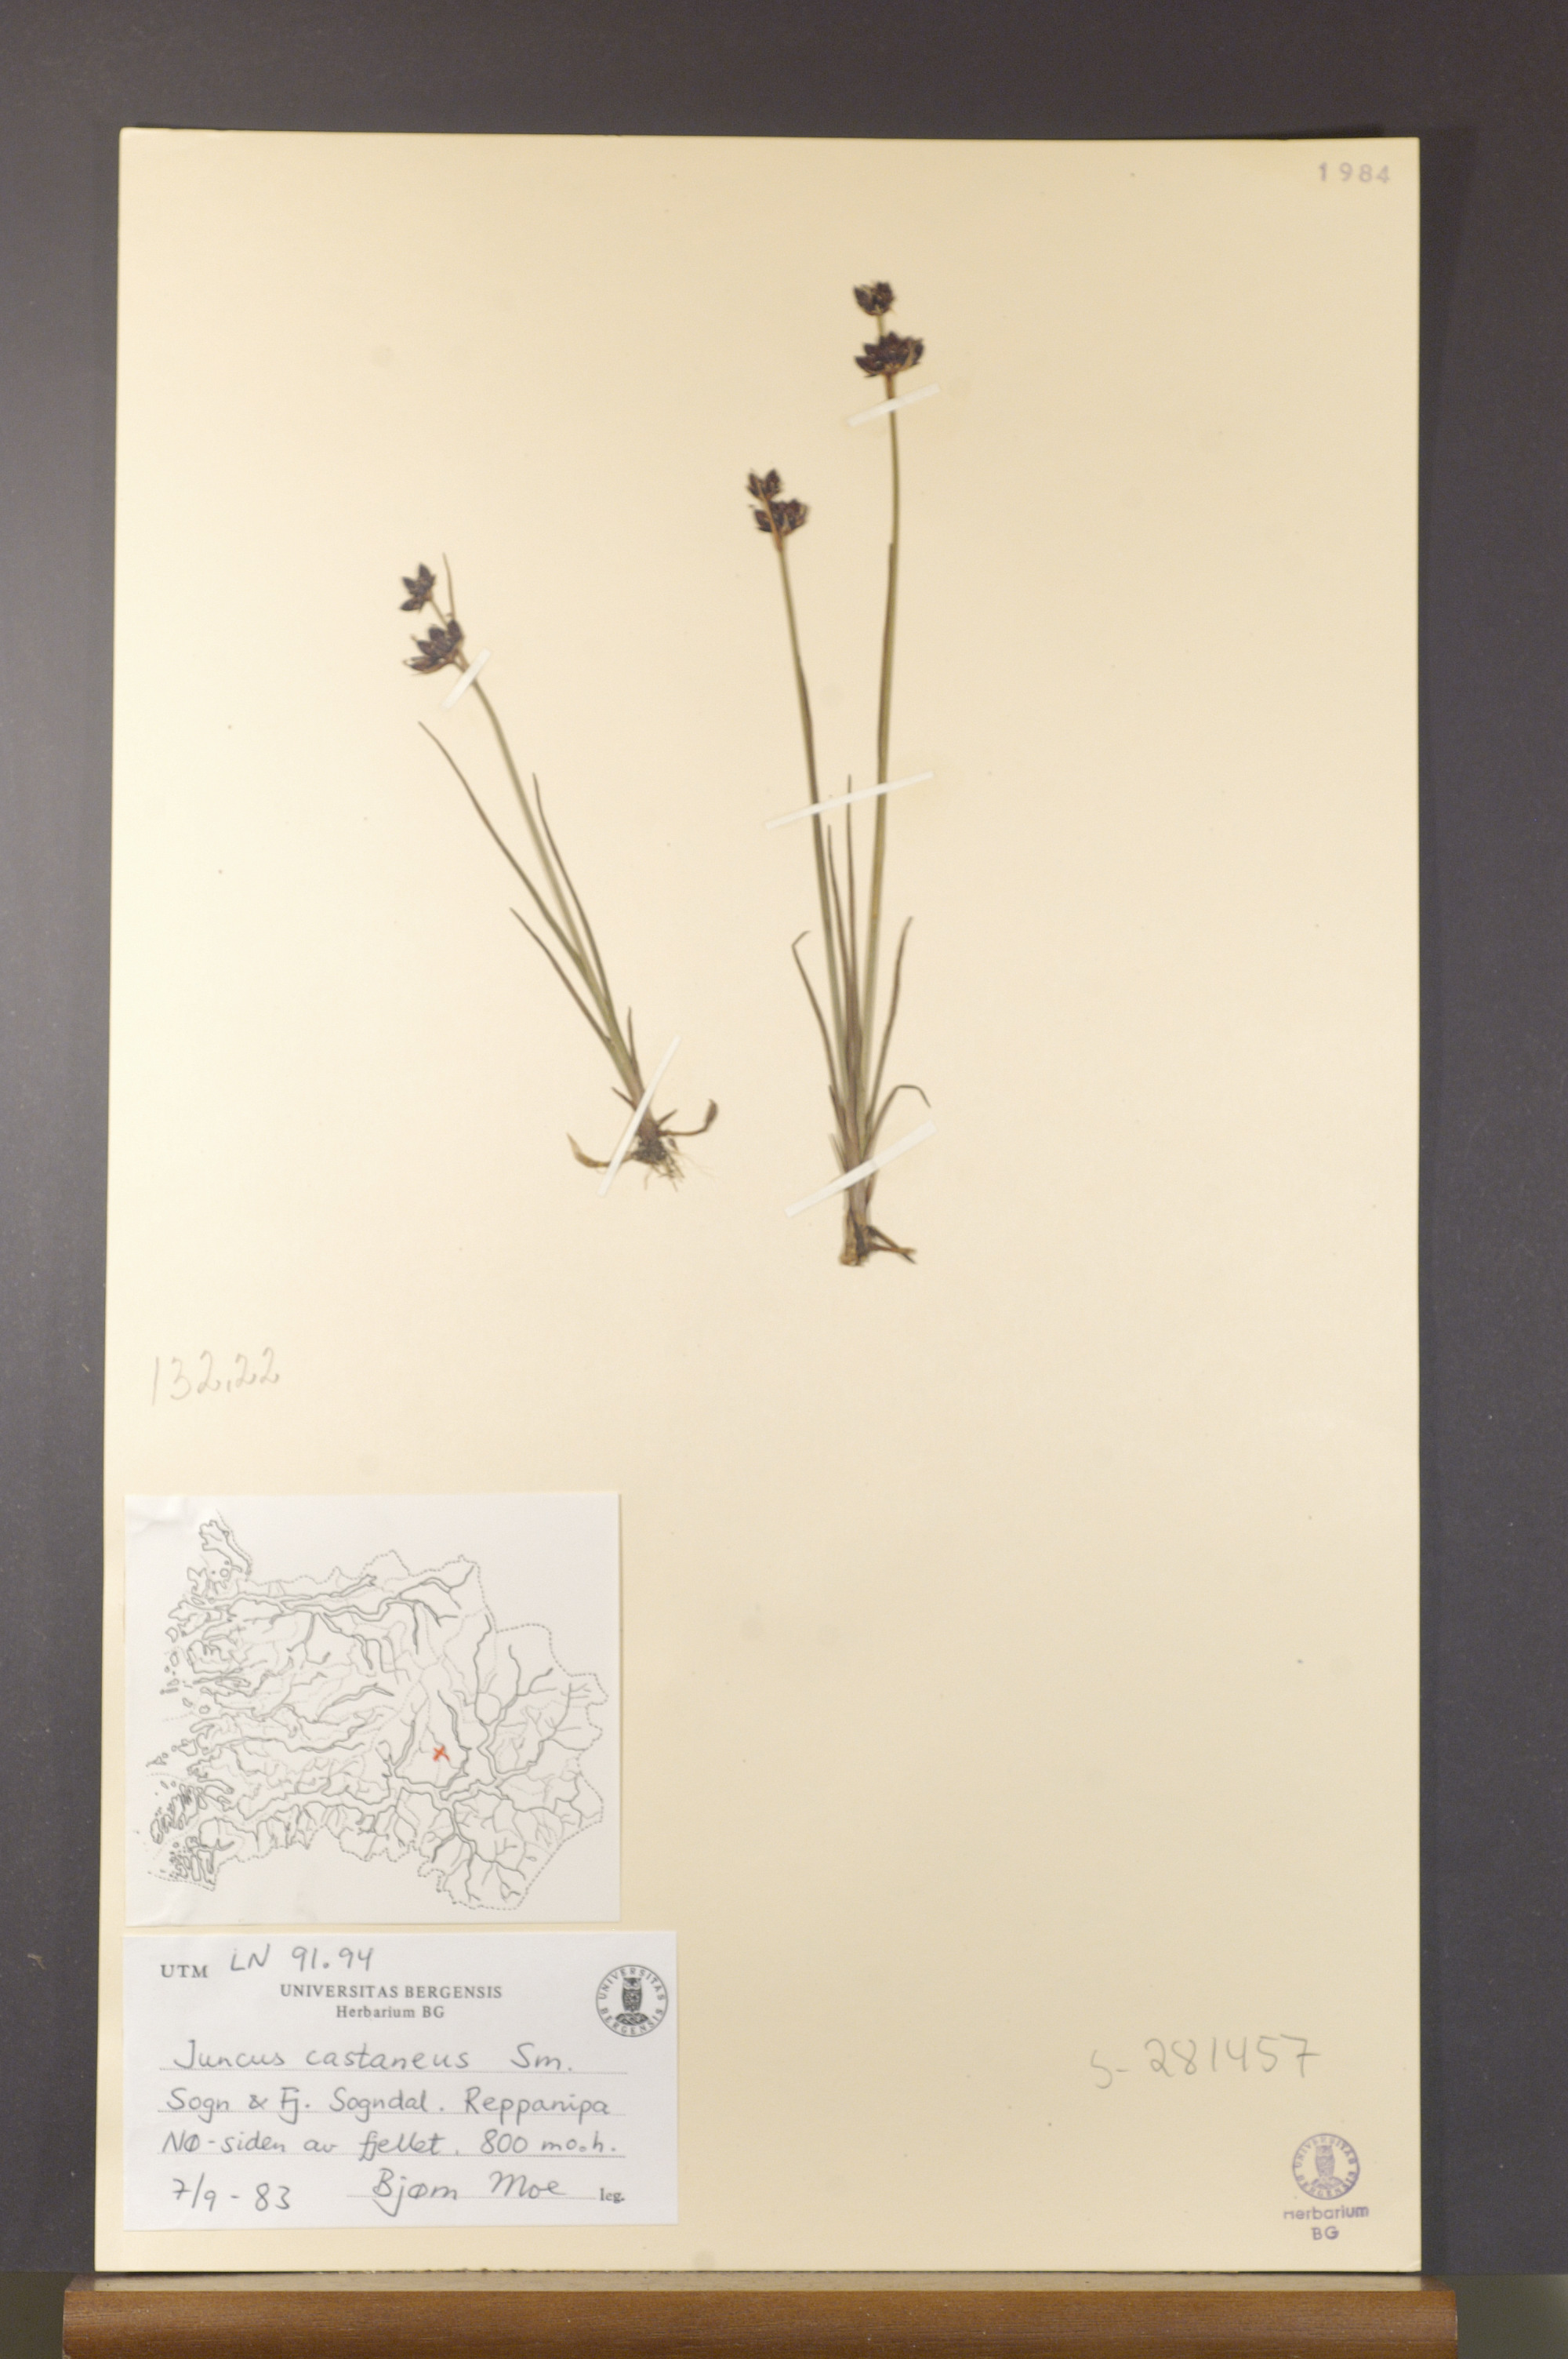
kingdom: Plantae
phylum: Tracheophyta
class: Liliopsida
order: Poales
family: Juncaceae
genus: Juncus
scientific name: Juncus castaneus
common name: Chestnut rush
